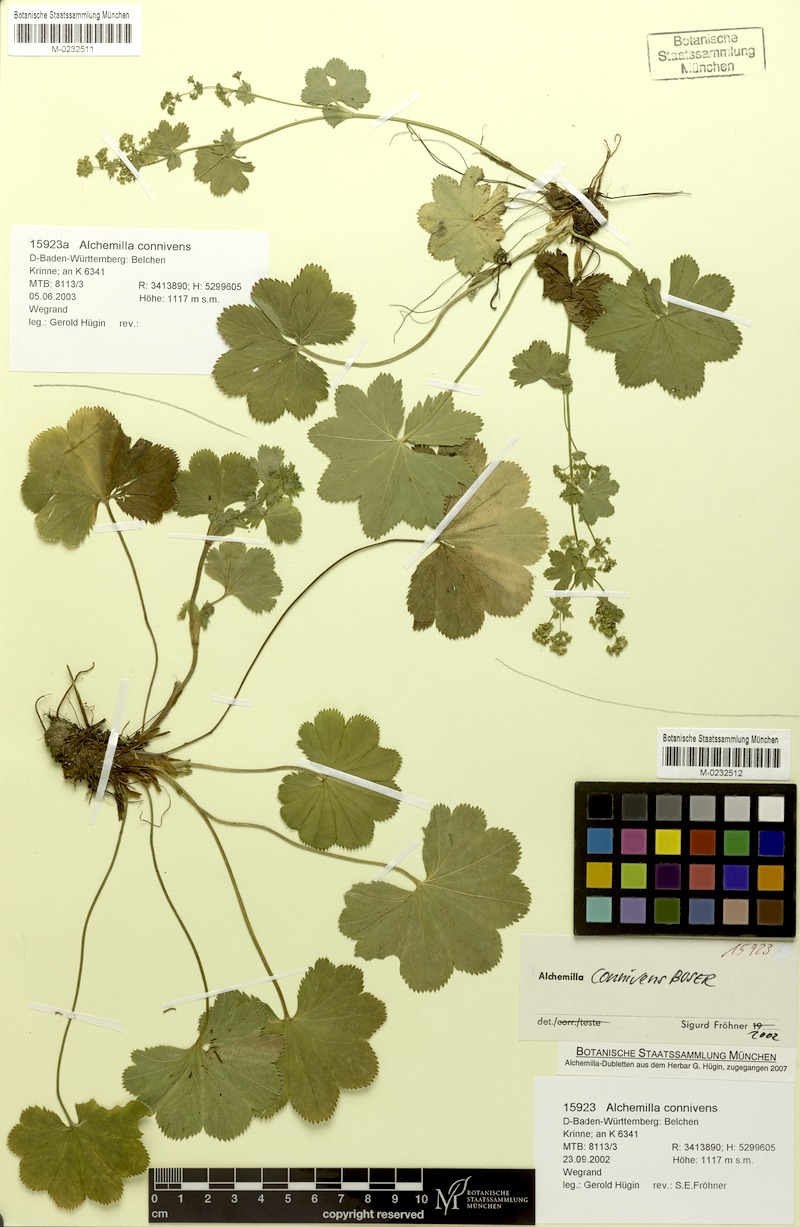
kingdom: Plantae
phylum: Tracheophyta
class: Magnoliopsida
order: Rosales
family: Rosaceae
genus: Alchemilla
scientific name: Alchemilla connivens
